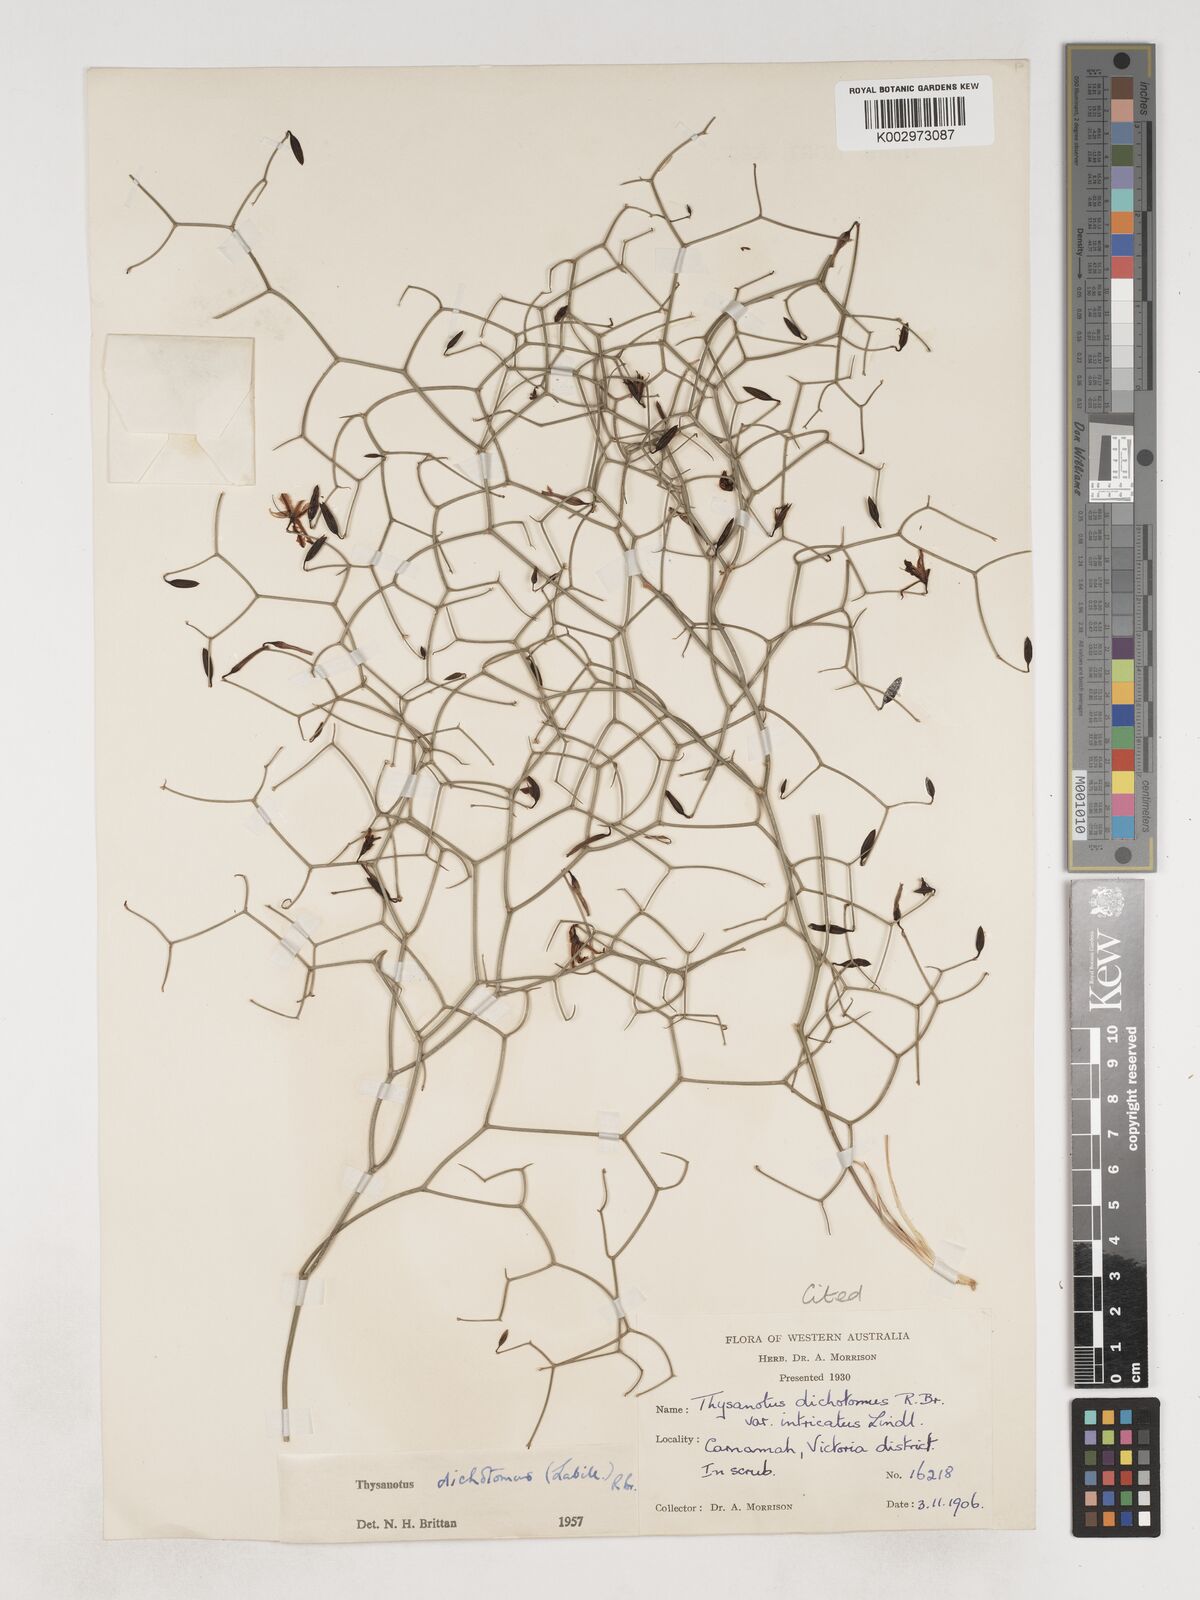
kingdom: Plantae
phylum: Tracheophyta
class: Liliopsida
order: Asparagales
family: Asparagaceae
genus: Thysanotus
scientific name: Thysanotus dichotomus
